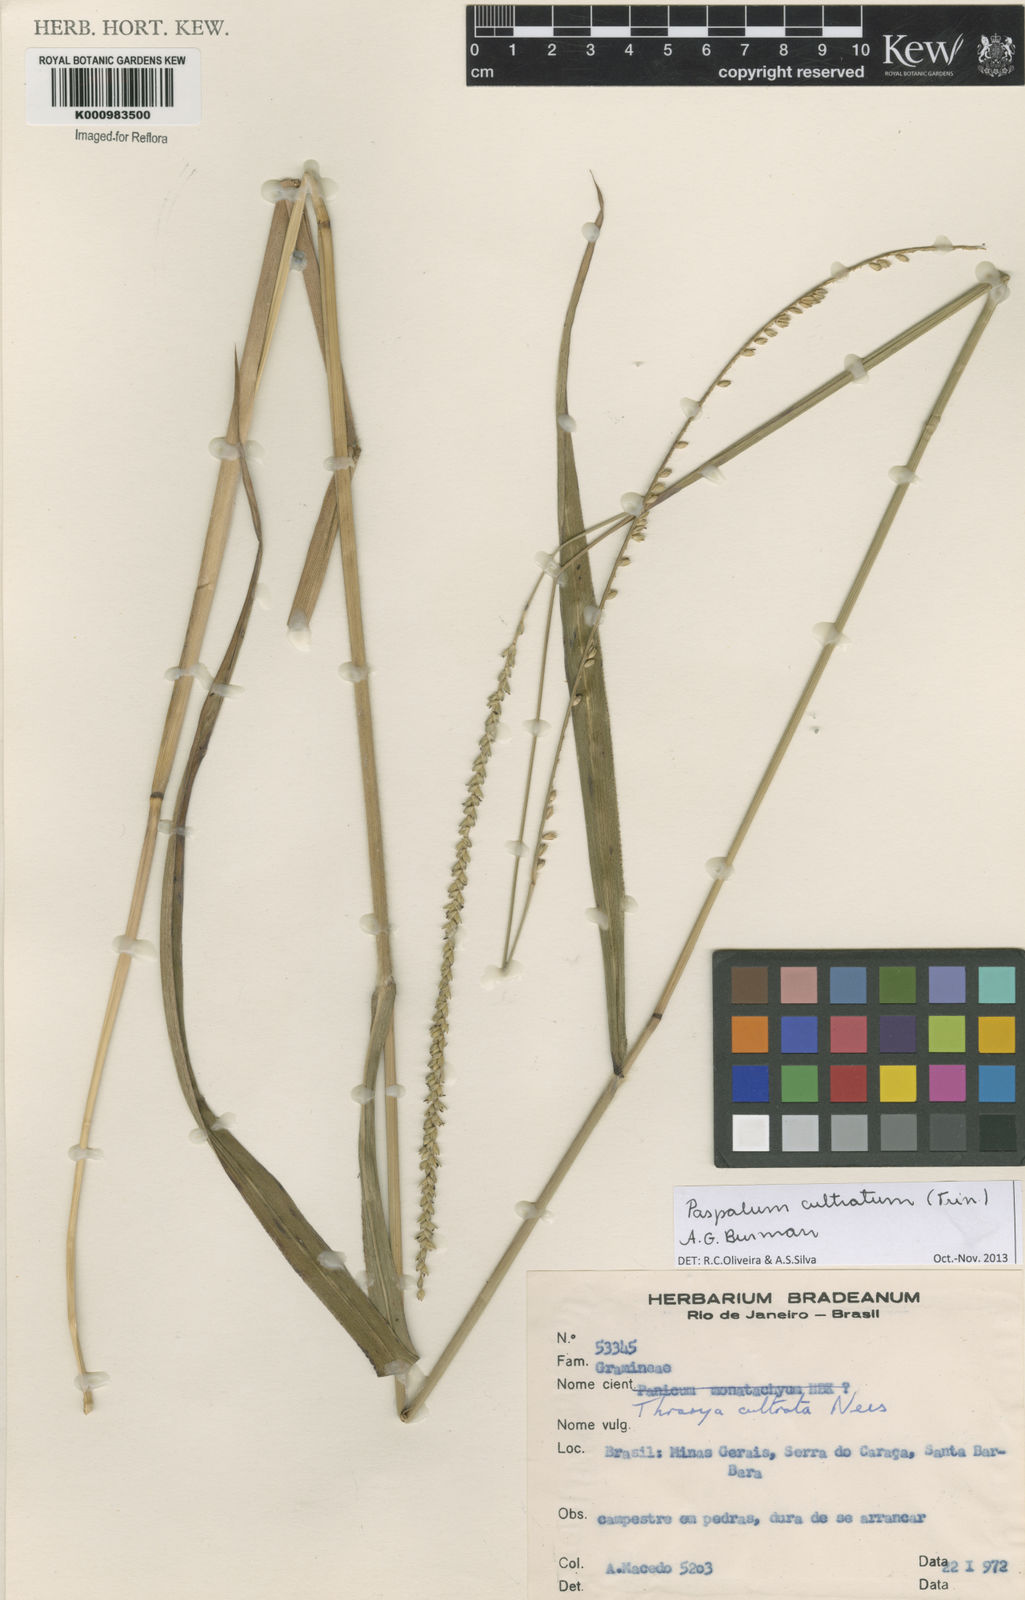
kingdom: Plantae
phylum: Tracheophyta
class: Liliopsida
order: Poales
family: Poaceae
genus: Paspalum
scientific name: Paspalum
